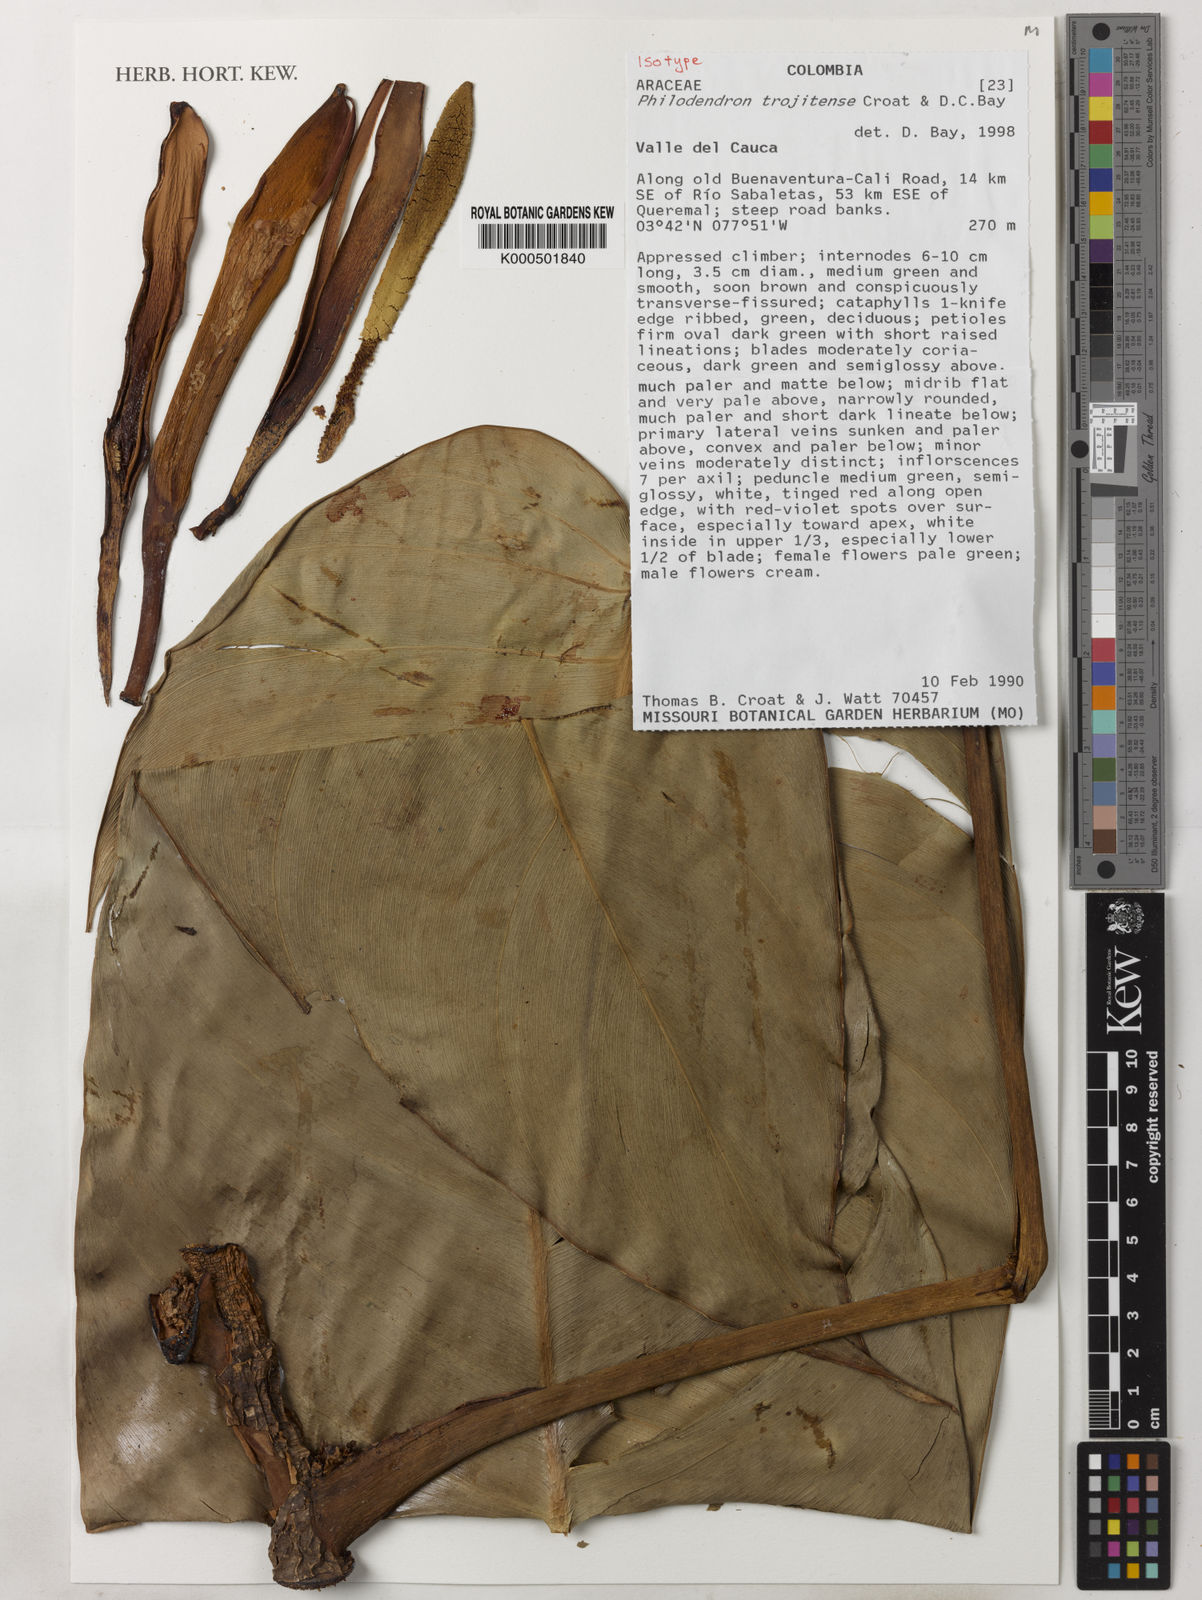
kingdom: Plantae
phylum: Tracheophyta
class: Liliopsida
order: Alismatales
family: Araceae
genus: Philodendron
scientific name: Philodendron trojitense
